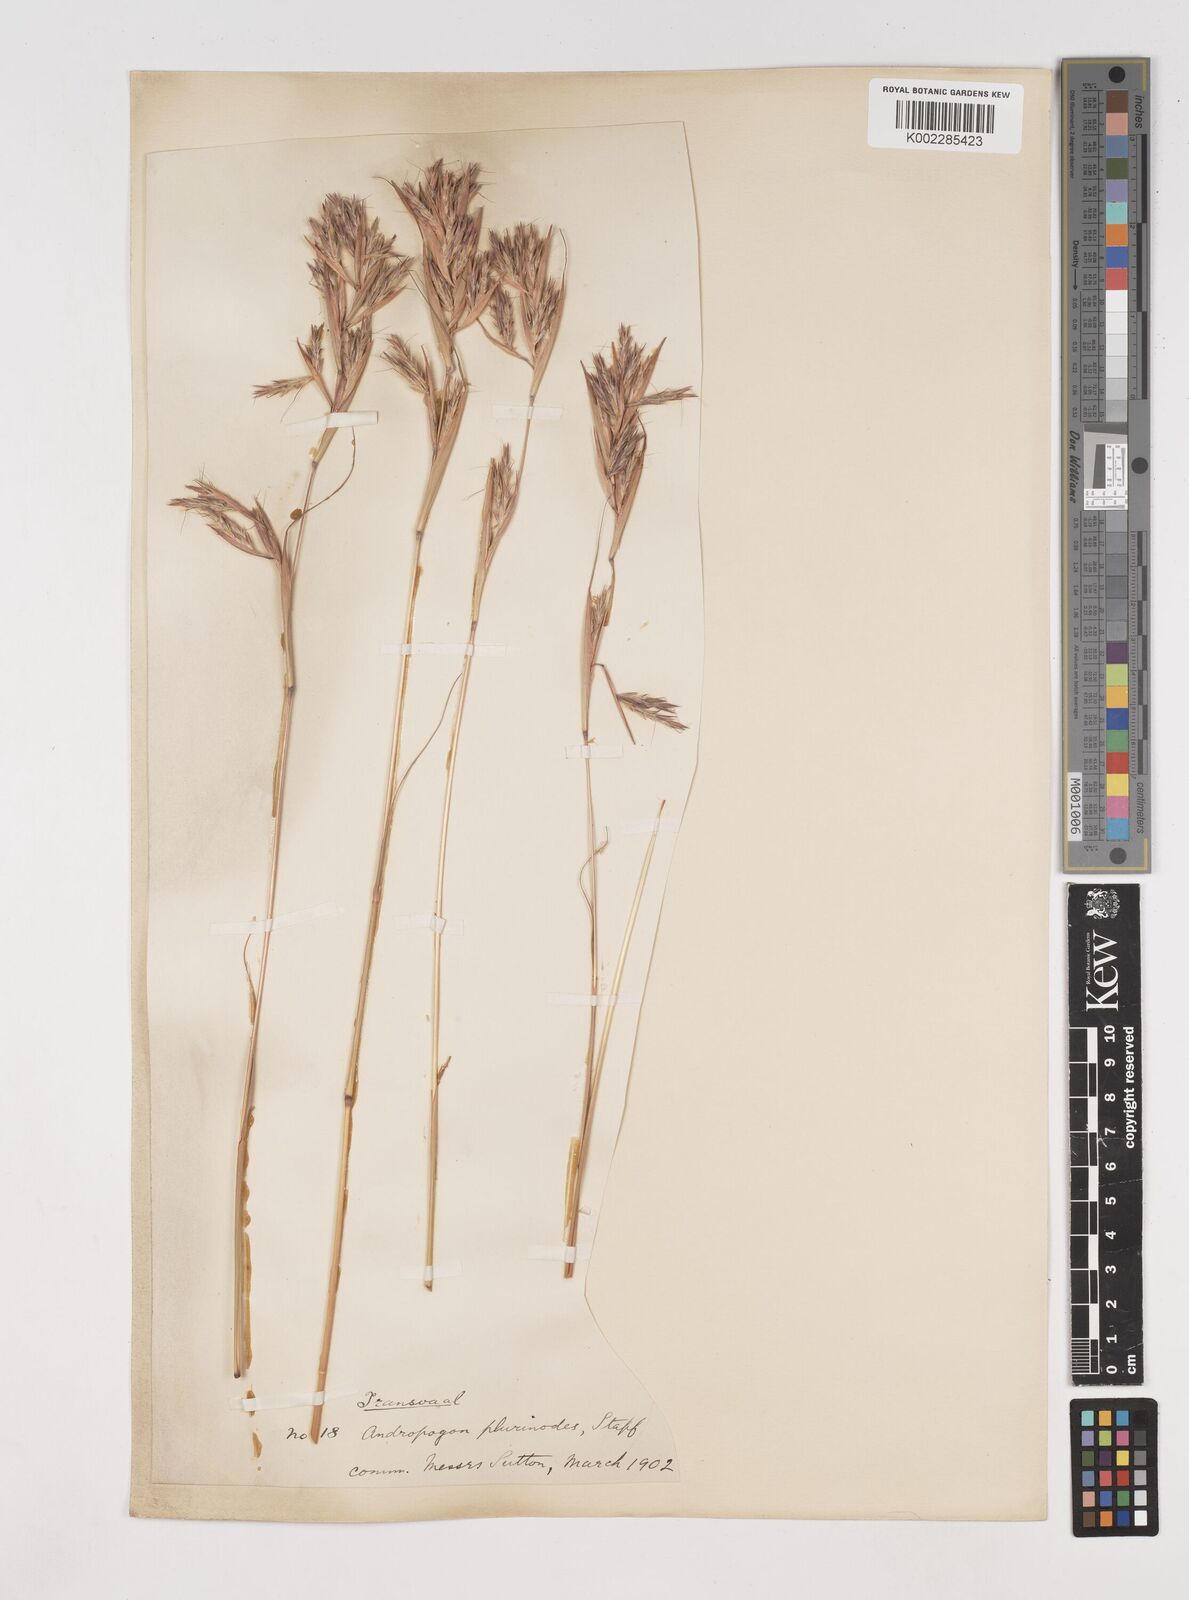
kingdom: Plantae
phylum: Tracheophyta
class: Liliopsida
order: Poales
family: Poaceae
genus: Cymbopogon
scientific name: Cymbopogon
